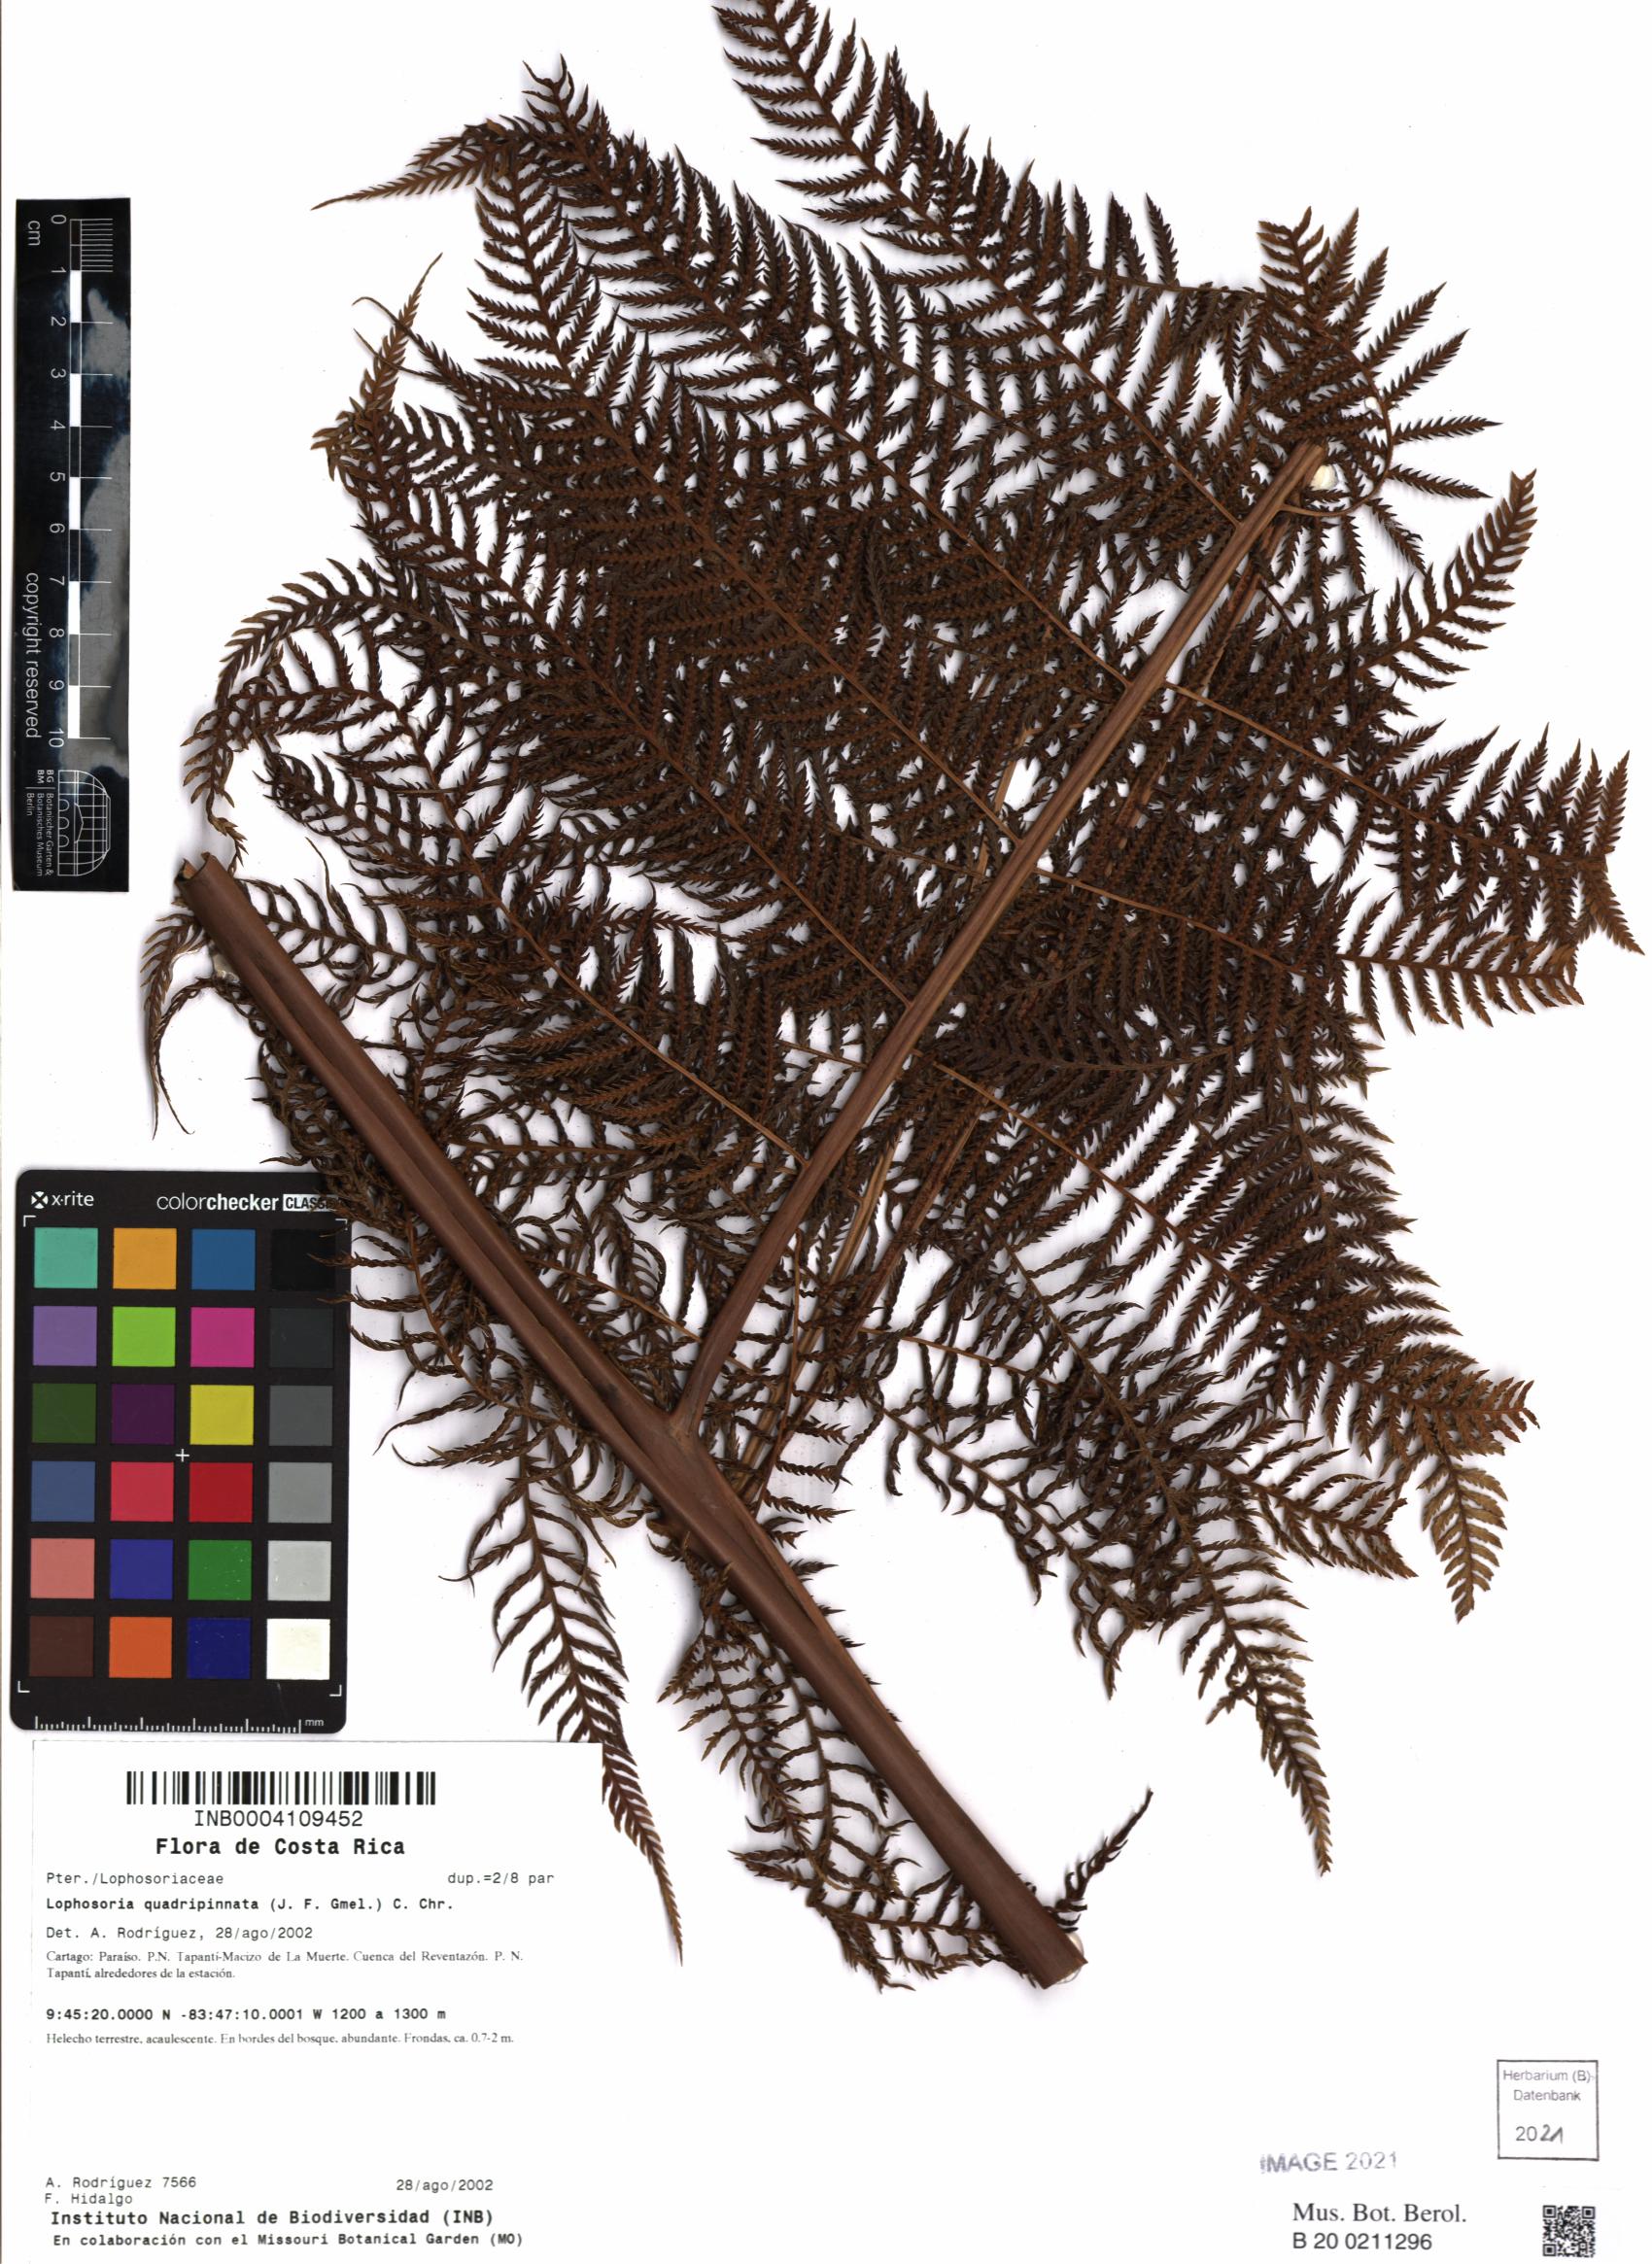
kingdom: Plantae
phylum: Tracheophyta
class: Polypodiopsida
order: Cyatheales
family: Dicksoniaceae
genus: Lophosoria
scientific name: Lophosoria quadripinnata
